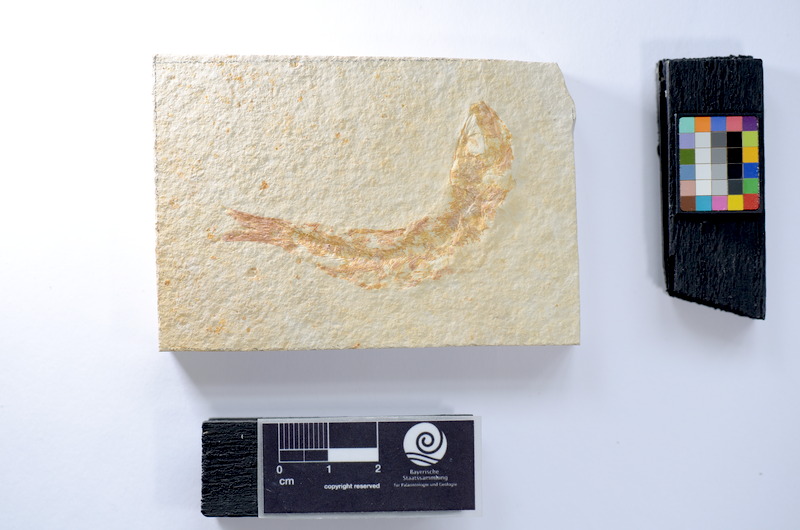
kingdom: Animalia
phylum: Chordata
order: Salmoniformes
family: Orthogonikleithridae
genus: Leptolepides
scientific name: Leptolepides sprattiformis
